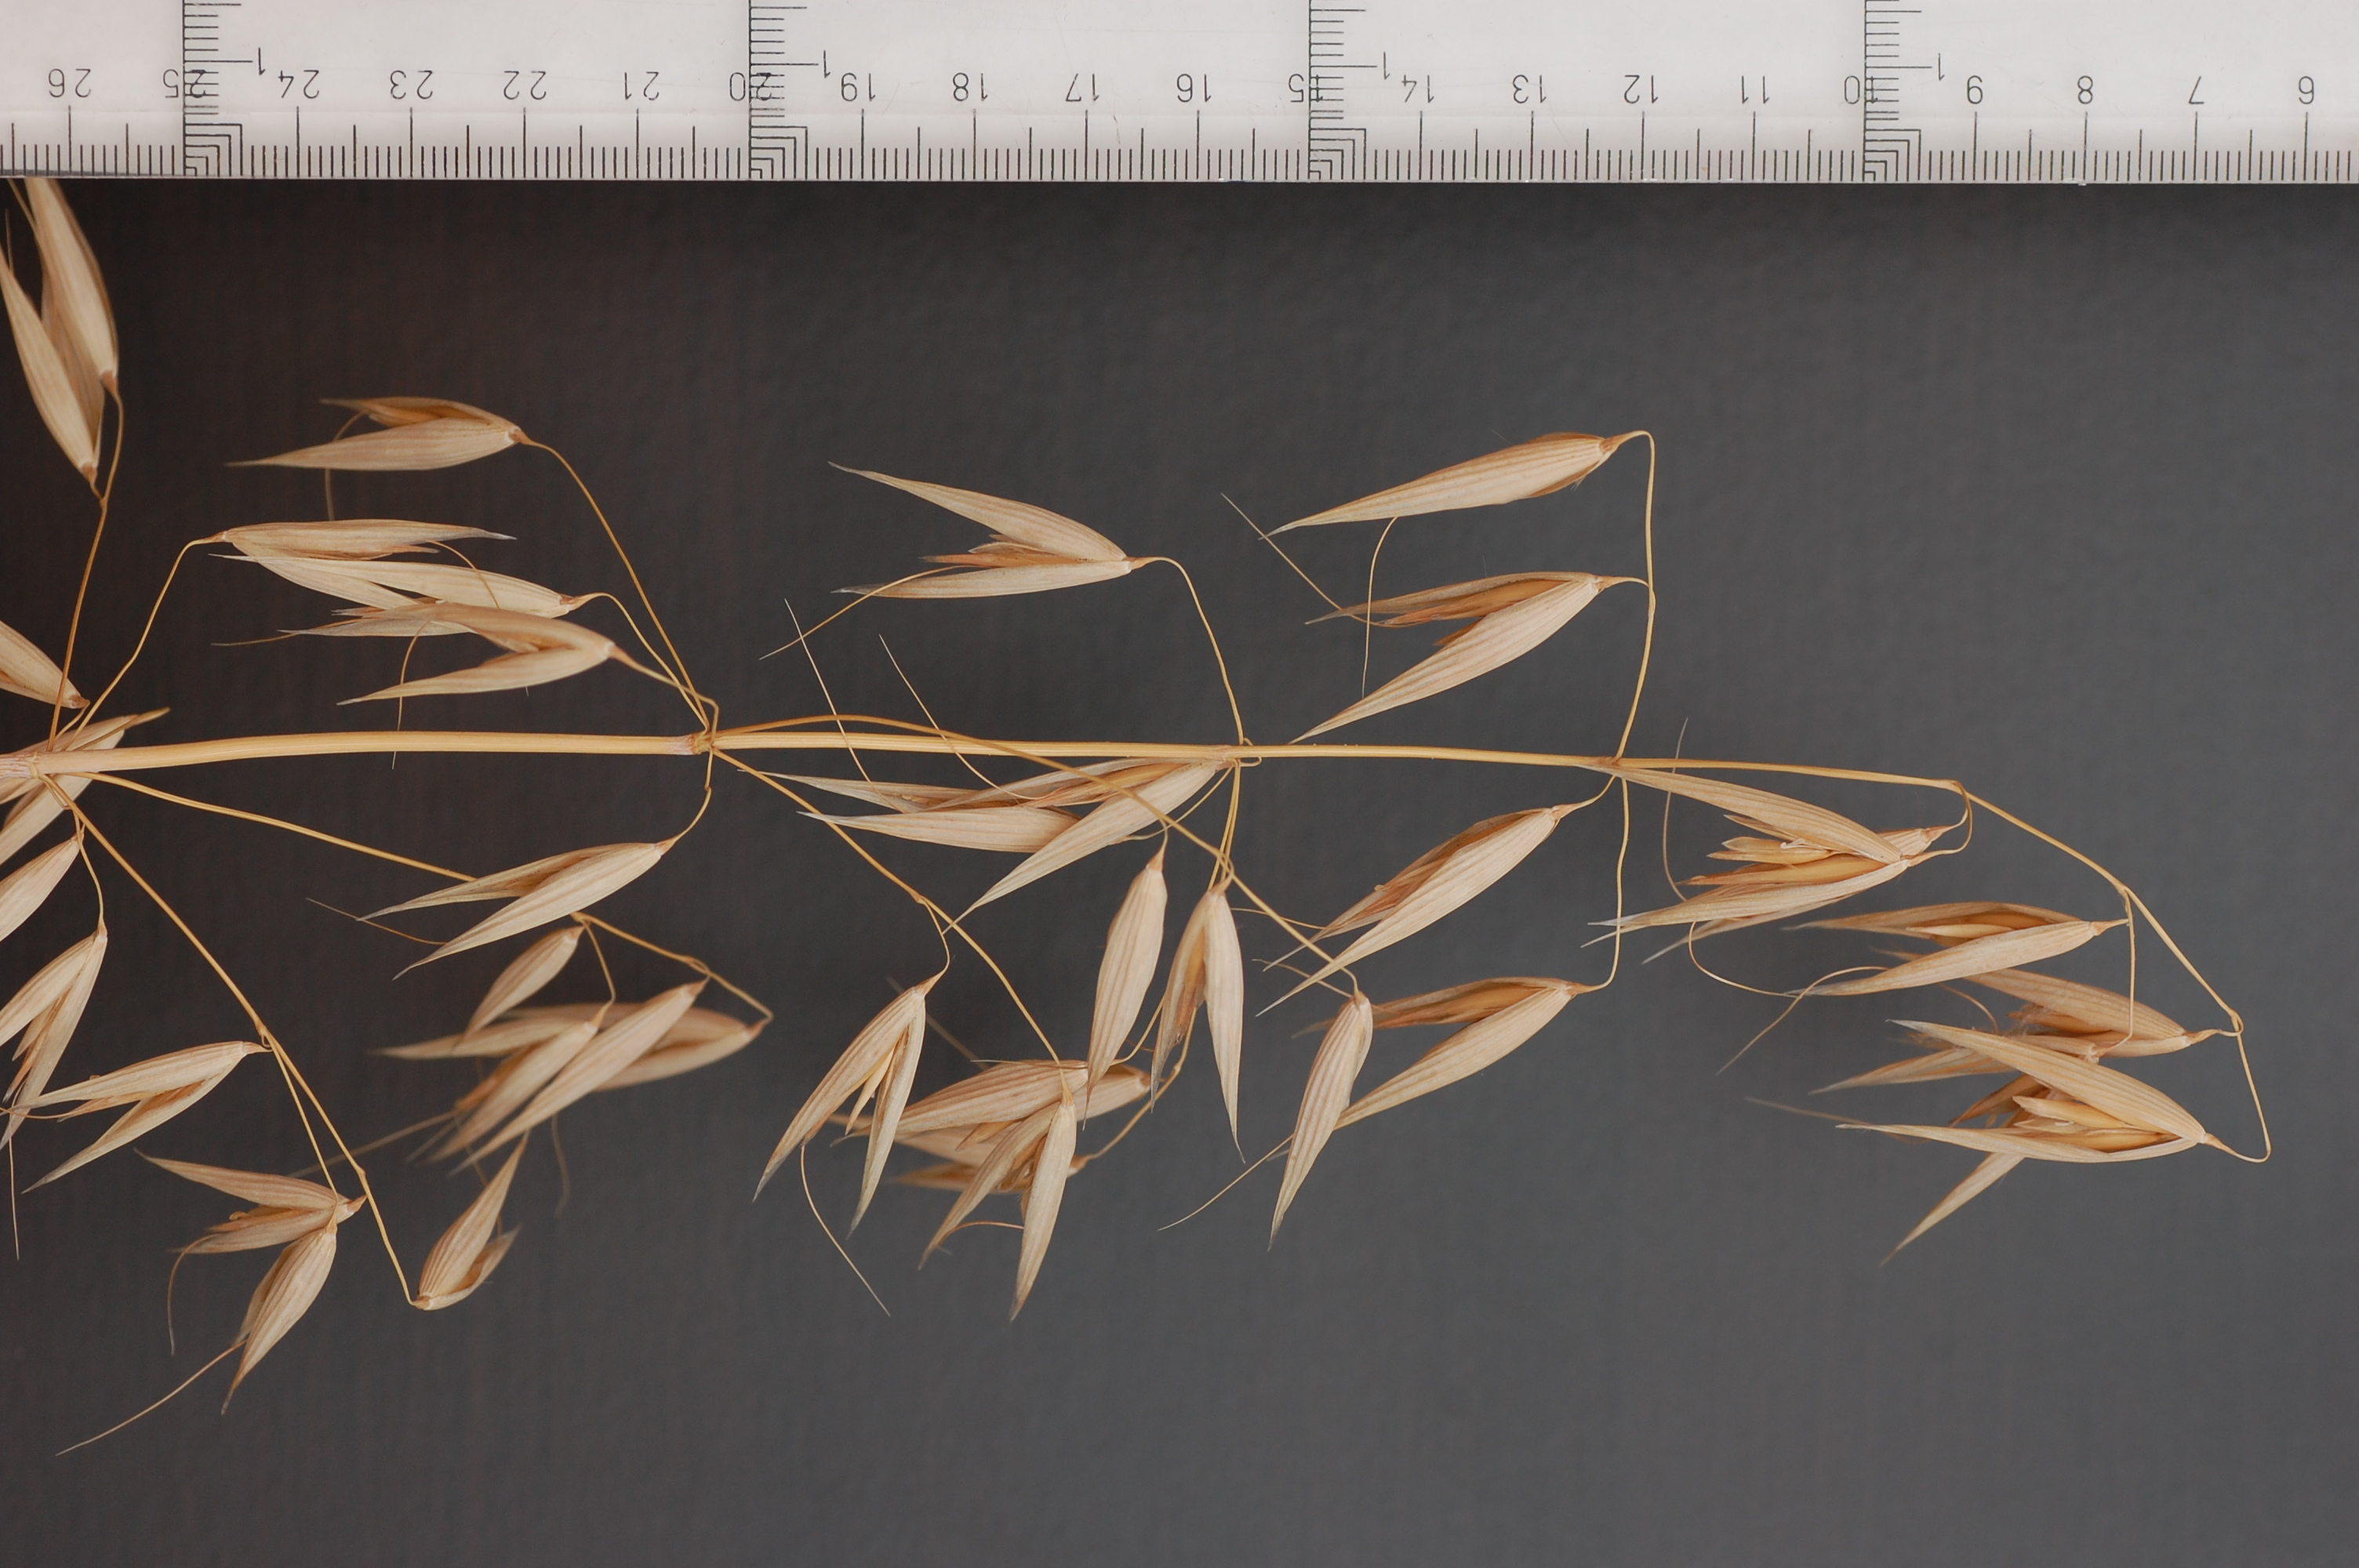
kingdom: Plantae
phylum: Tracheophyta
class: Liliopsida
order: Poales
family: Poaceae
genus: Avena
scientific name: Avena sativa
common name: Oat
